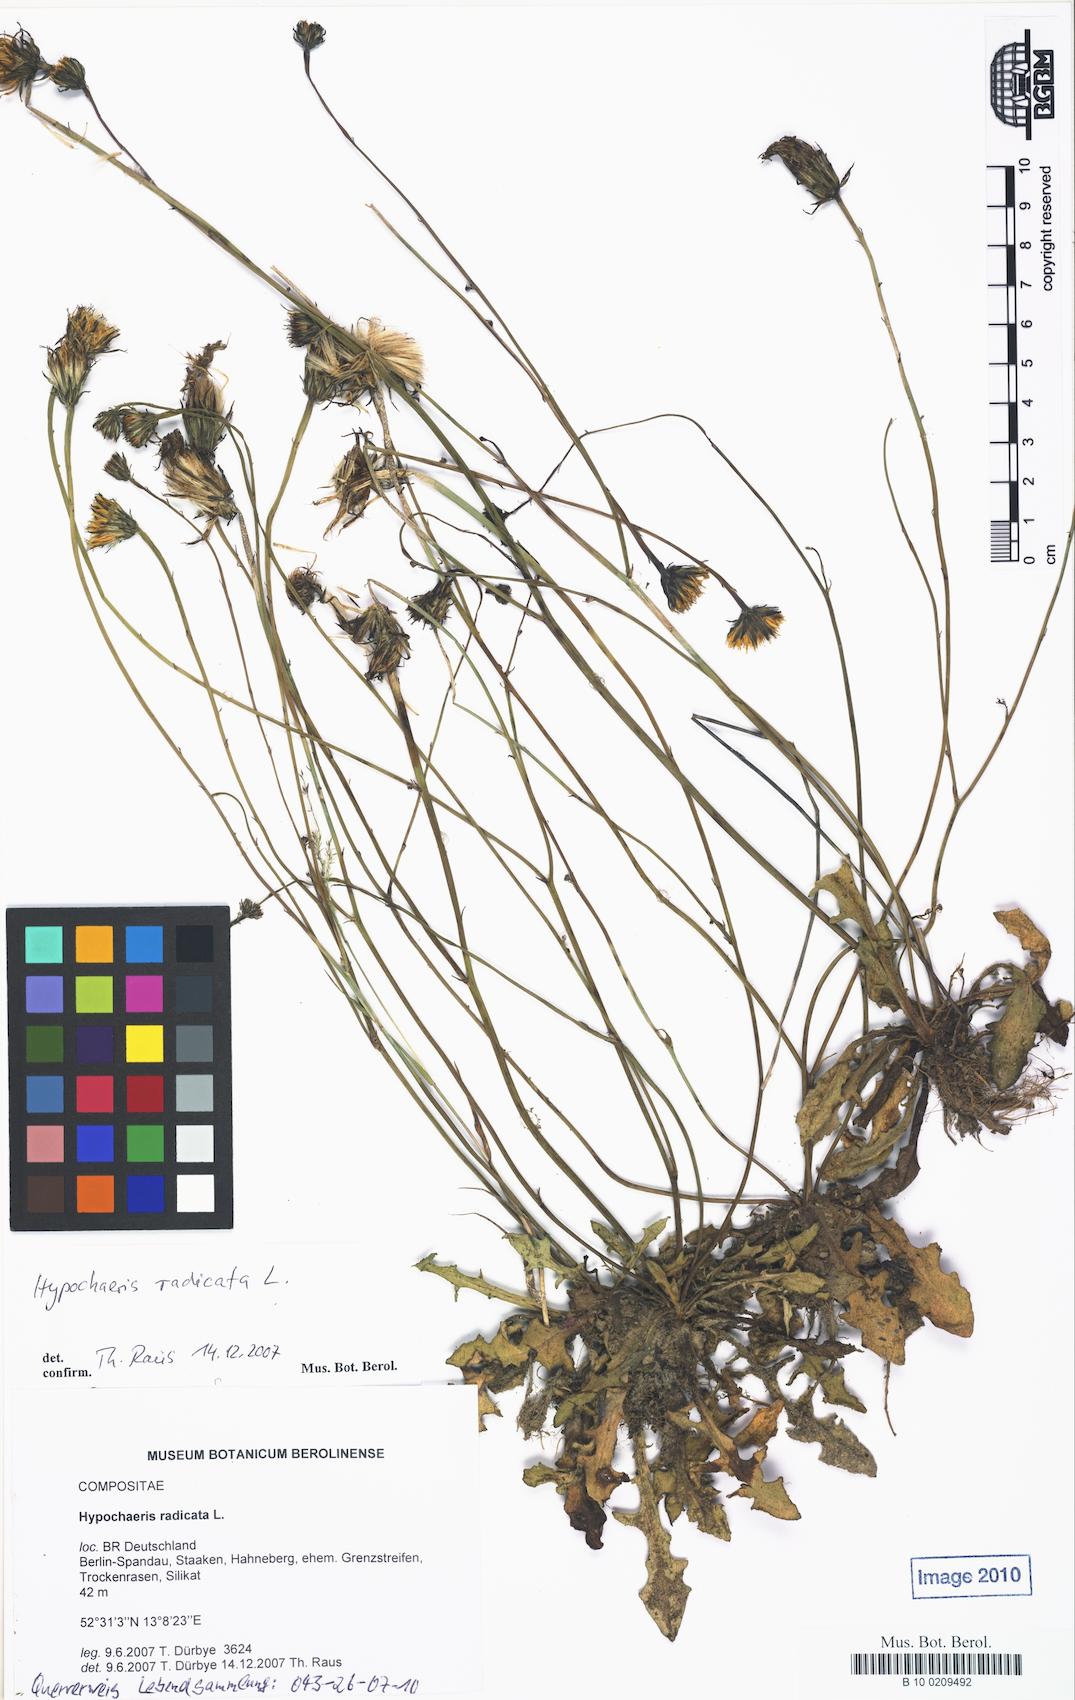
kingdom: Plantae
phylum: Tracheophyta
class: Magnoliopsida
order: Asterales
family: Asteraceae
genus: Hypochaeris
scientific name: Hypochaeris radicata
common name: Flatweed
